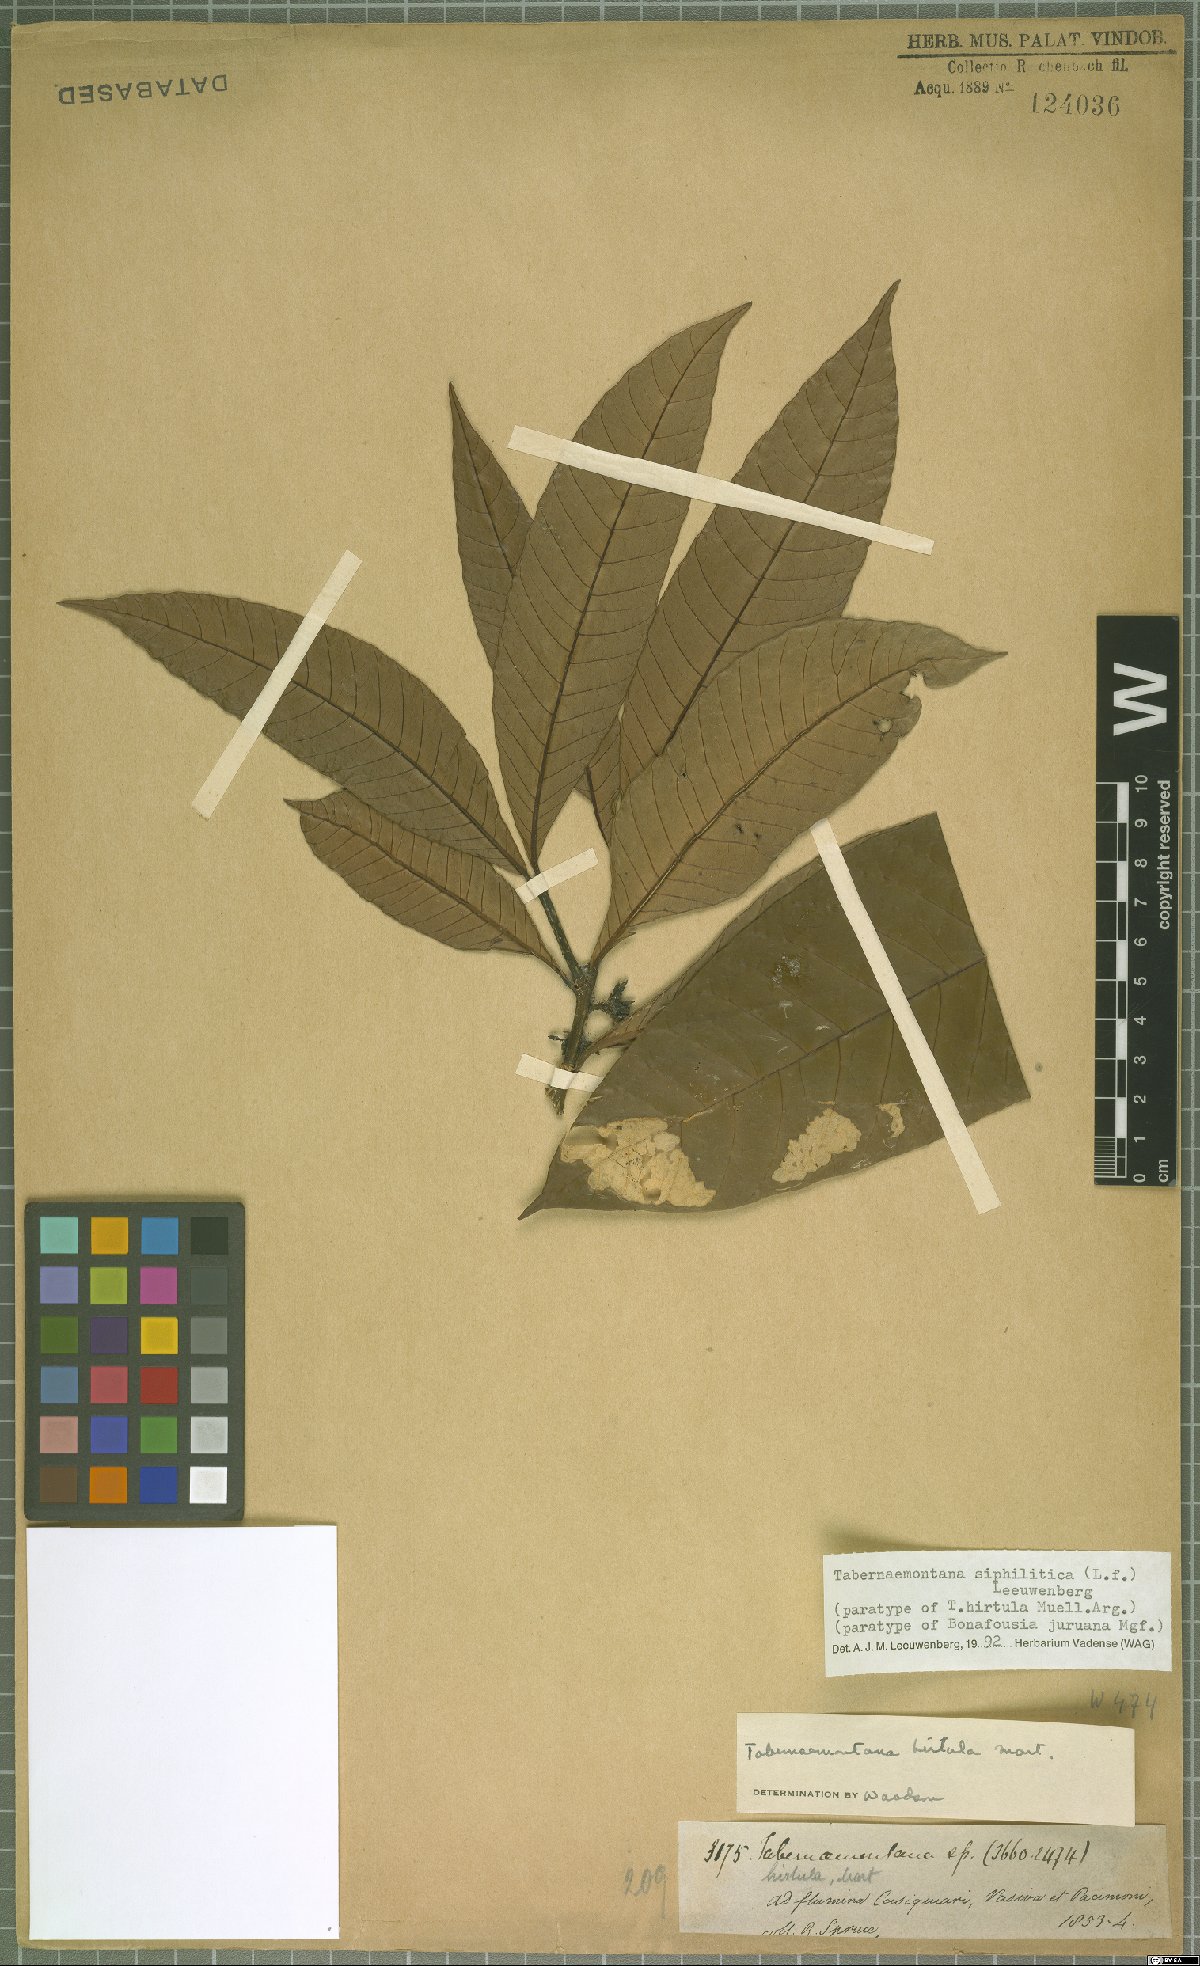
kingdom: Plantae
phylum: Tracheophyta
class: Magnoliopsida
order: Gentianales
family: Apocynaceae
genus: Tabernaemontana
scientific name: Tabernaemontana siphilitica
